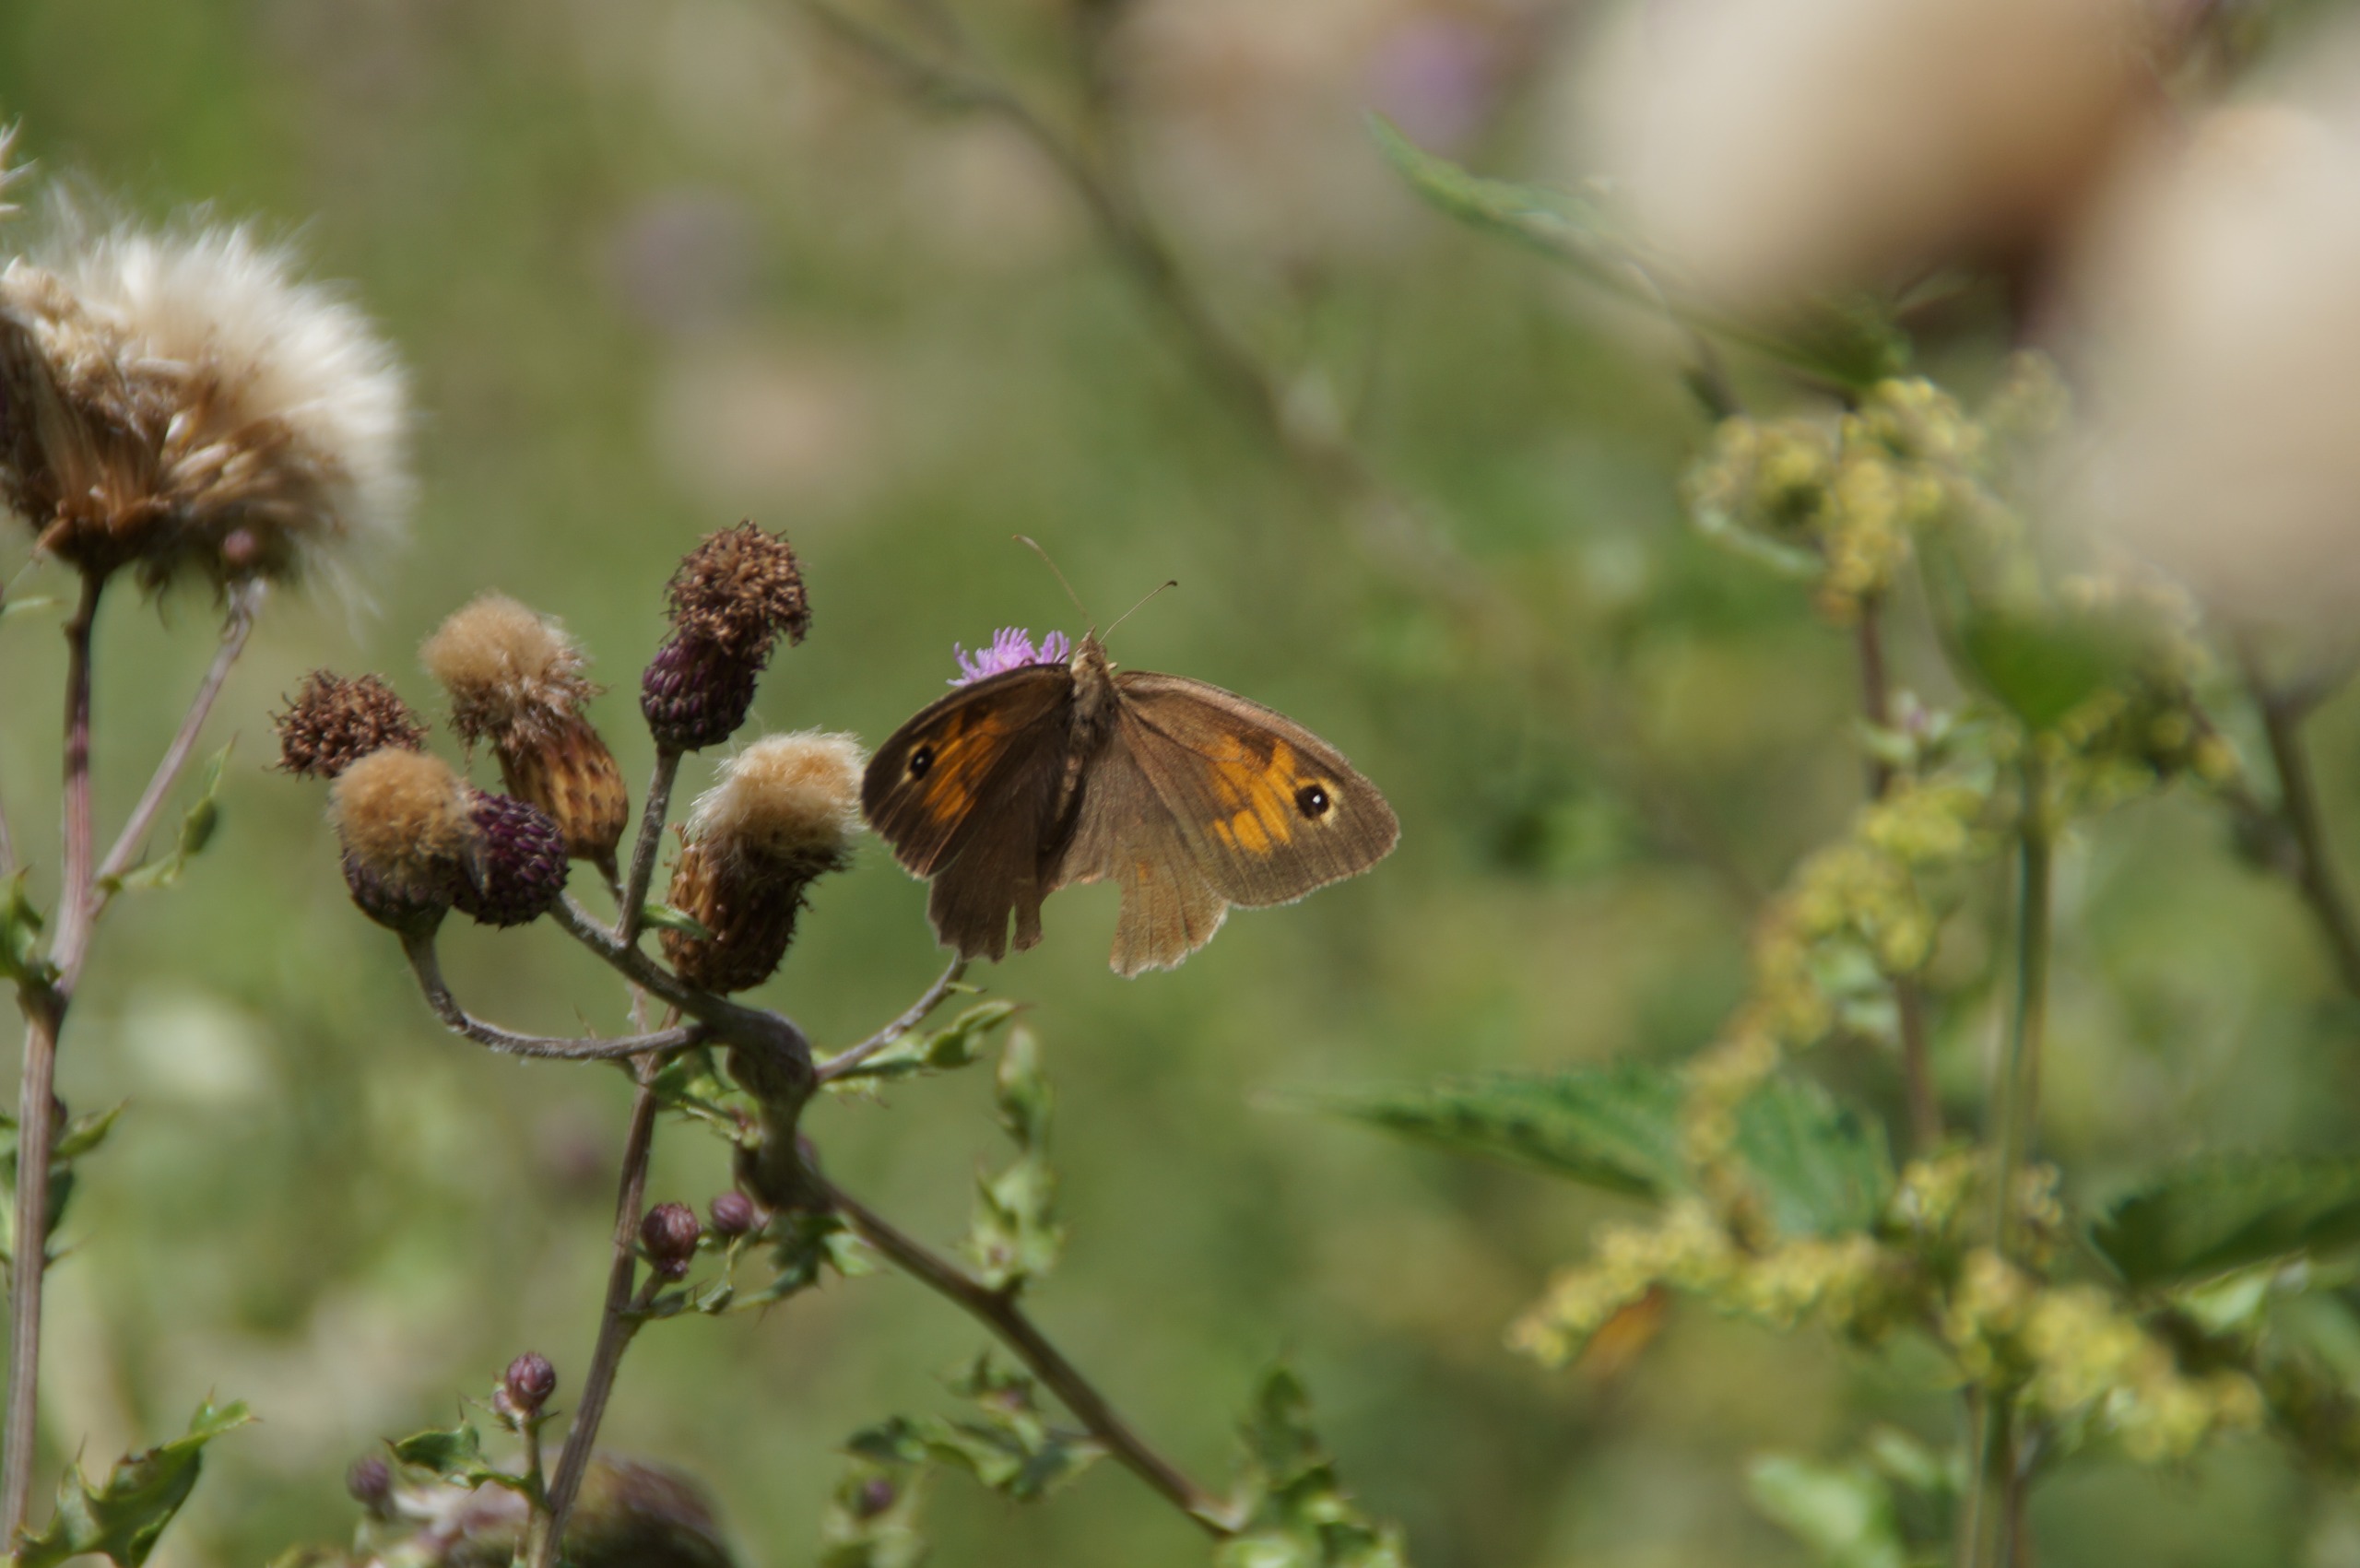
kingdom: Animalia
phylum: Arthropoda
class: Insecta
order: Lepidoptera
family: Nymphalidae
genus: Maniola
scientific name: Maniola jurtina
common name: Græsrandøje
